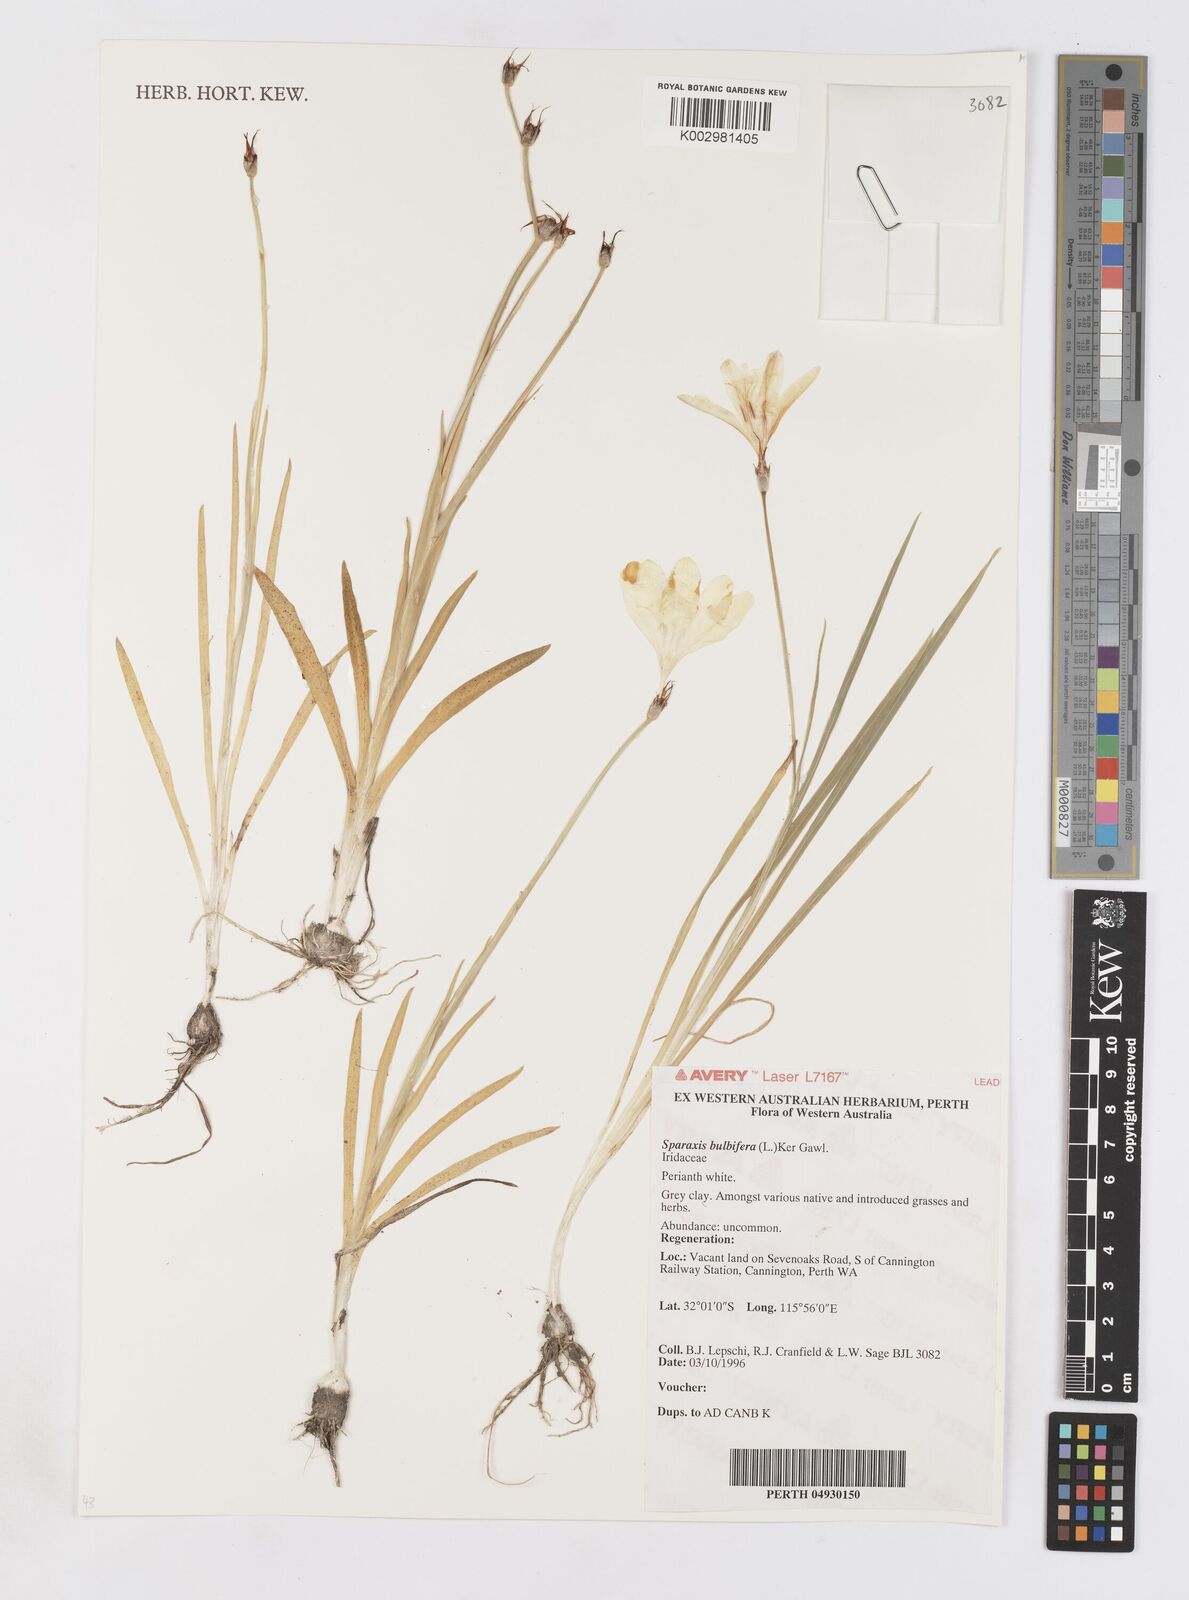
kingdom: Plantae
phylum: Tracheophyta
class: Liliopsida
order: Asparagales
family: Iridaceae
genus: Sparaxis
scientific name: Sparaxis bulbifera
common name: Harlequin-flower
